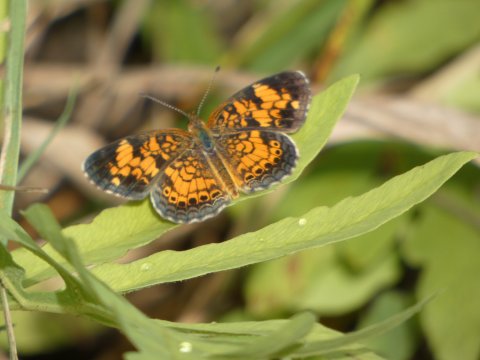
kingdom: Animalia
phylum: Arthropoda
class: Insecta
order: Lepidoptera
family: Nymphalidae
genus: Phyciodes
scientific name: Phyciodes tharos
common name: Pearl Crescent
